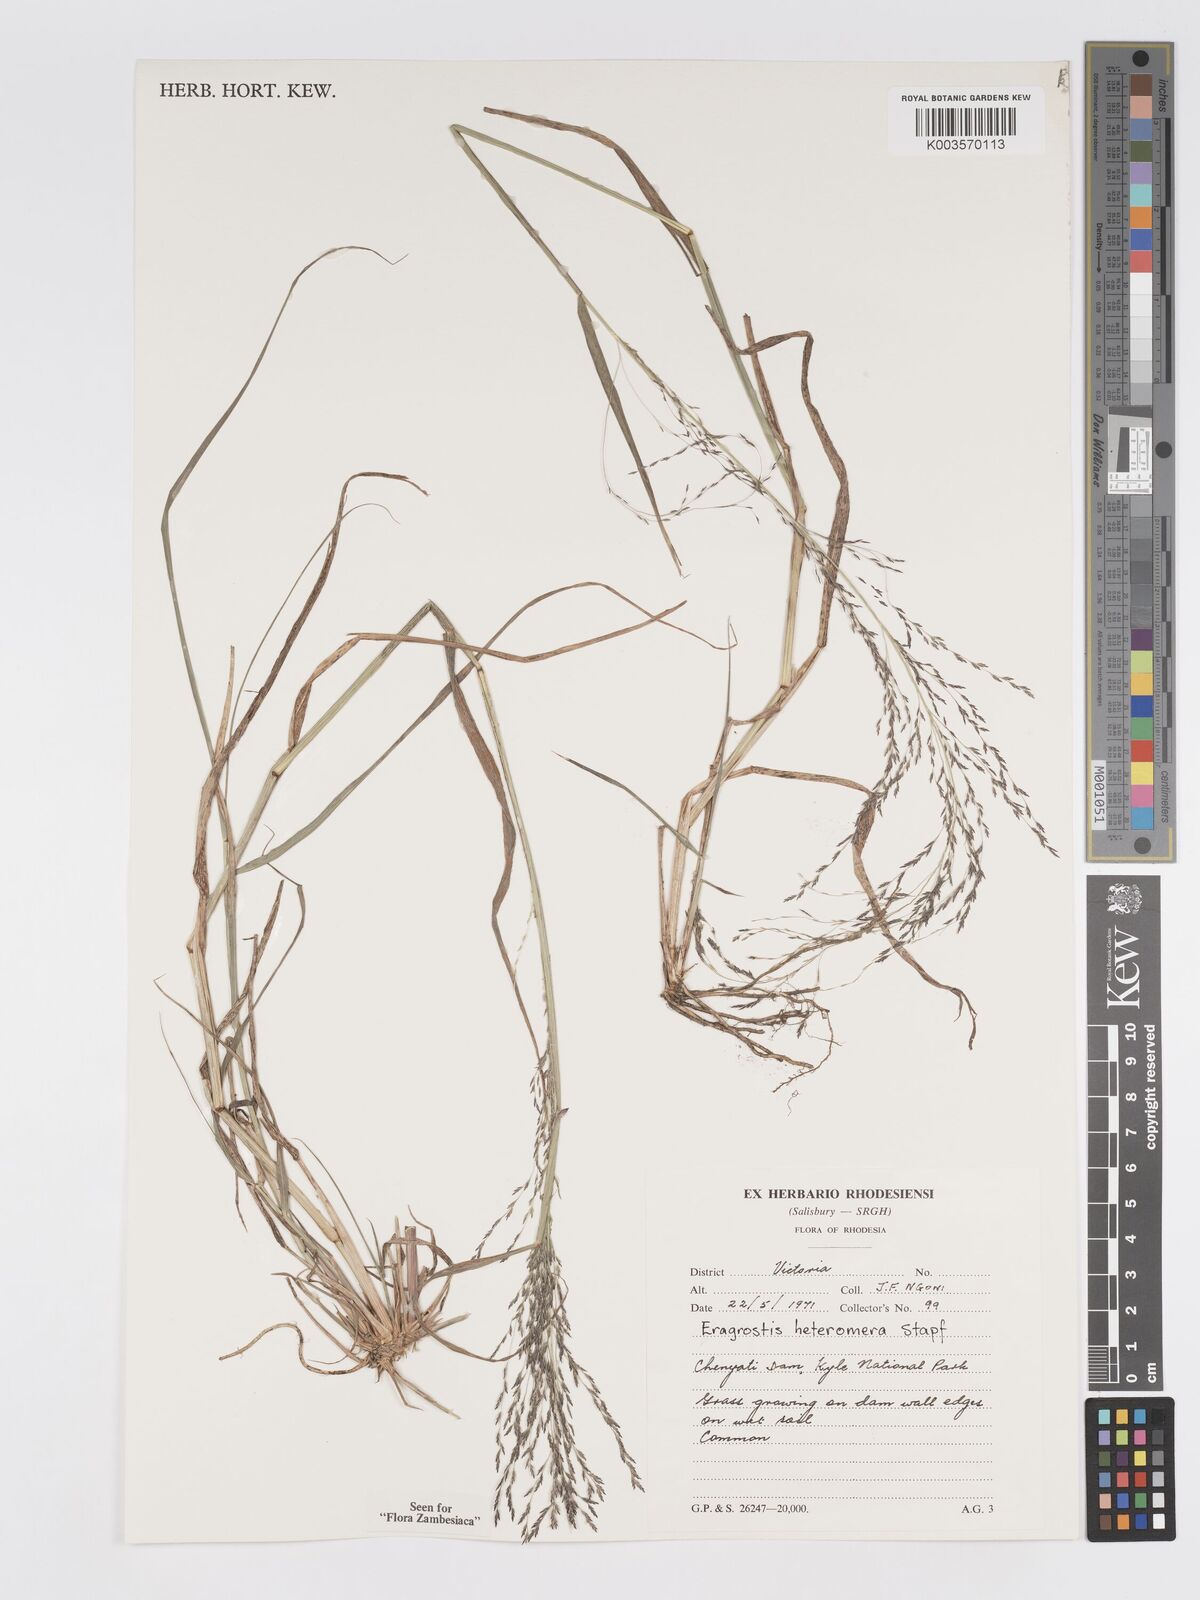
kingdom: Plantae
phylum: Tracheophyta
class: Liliopsida
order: Poales
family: Poaceae
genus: Eragrostis
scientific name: Eragrostis heteromera
